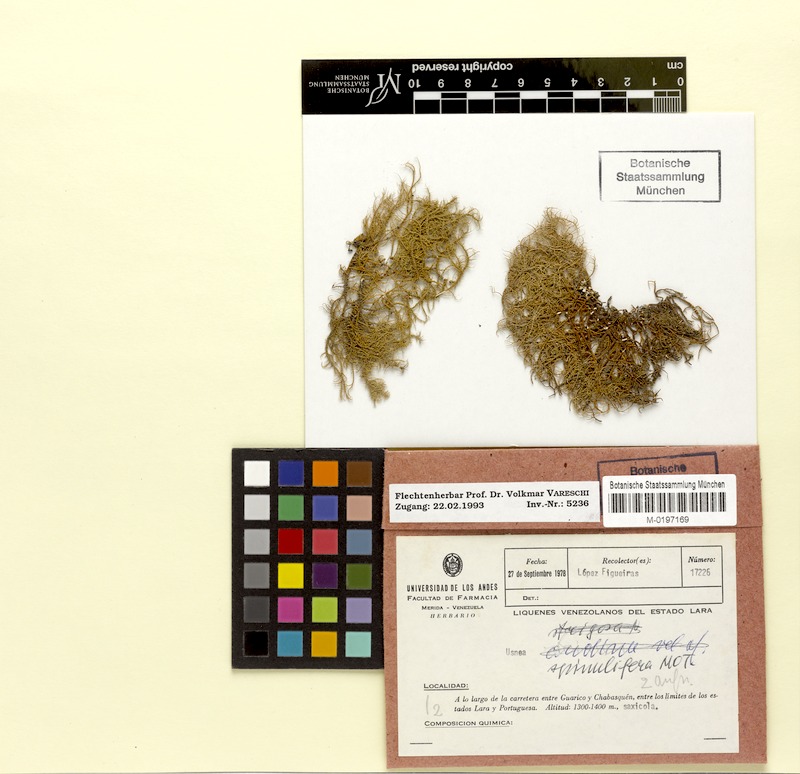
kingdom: Fungi
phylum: Ascomycota
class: Lecanoromycetes
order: Lecanorales
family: Parmeliaceae
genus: Usnea
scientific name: Usnea spinulifera
